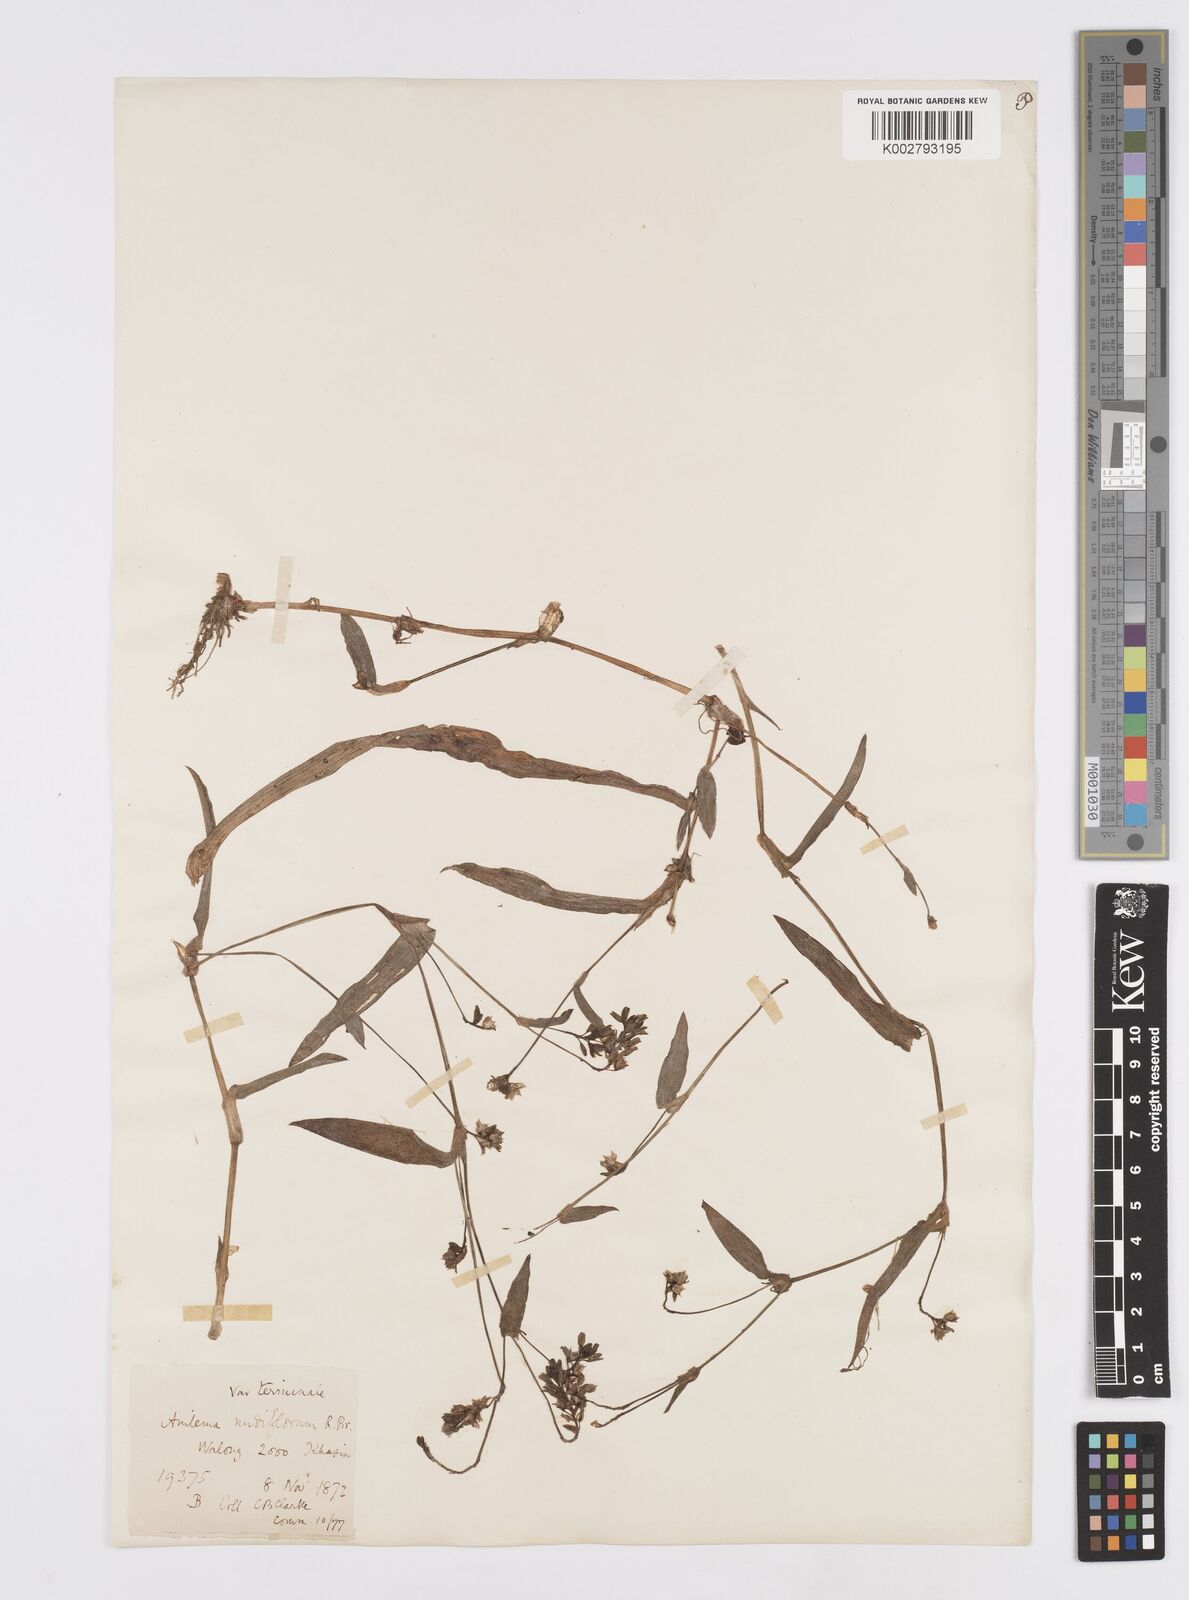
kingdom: Plantae
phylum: Tracheophyta
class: Liliopsida
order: Commelinales
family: Commelinaceae
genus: Murdannia
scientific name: Murdannia nudiflora
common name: Nakedstem dewflower
